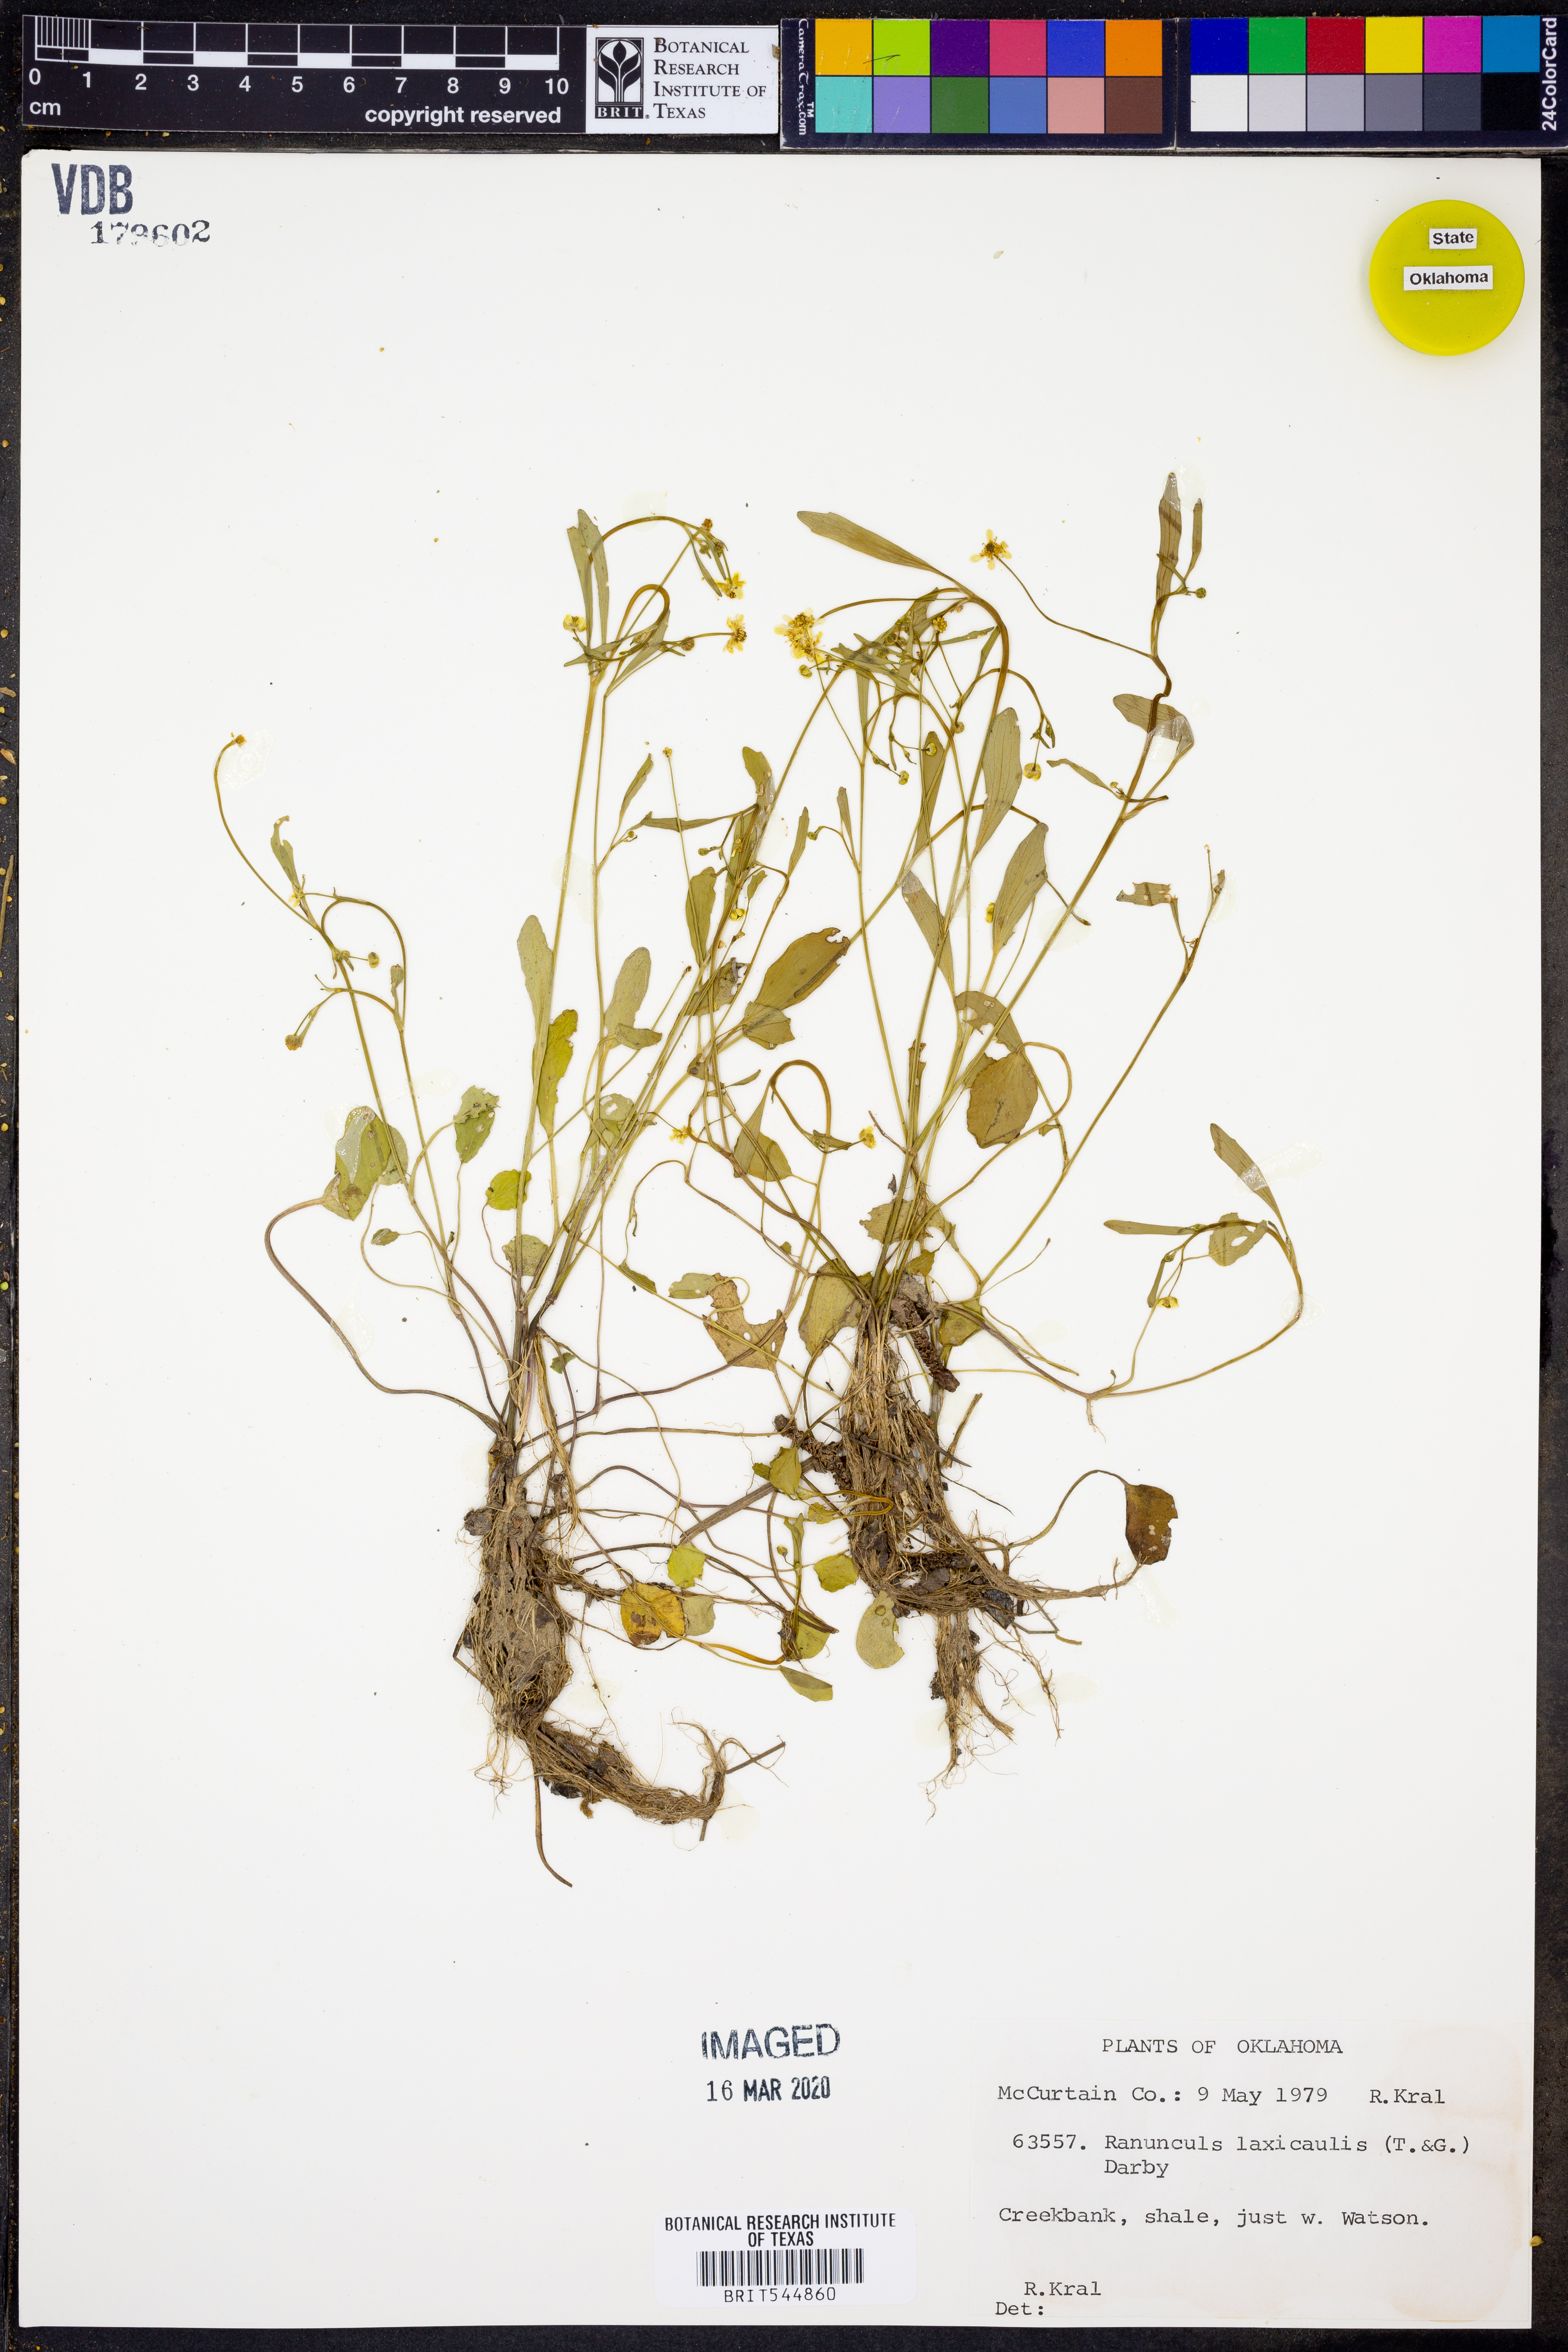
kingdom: Plantae
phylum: Tracheophyta
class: Magnoliopsida
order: Ranunculales
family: Ranunculaceae
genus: Ranunculus
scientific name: Ranunculus laxicaulis
